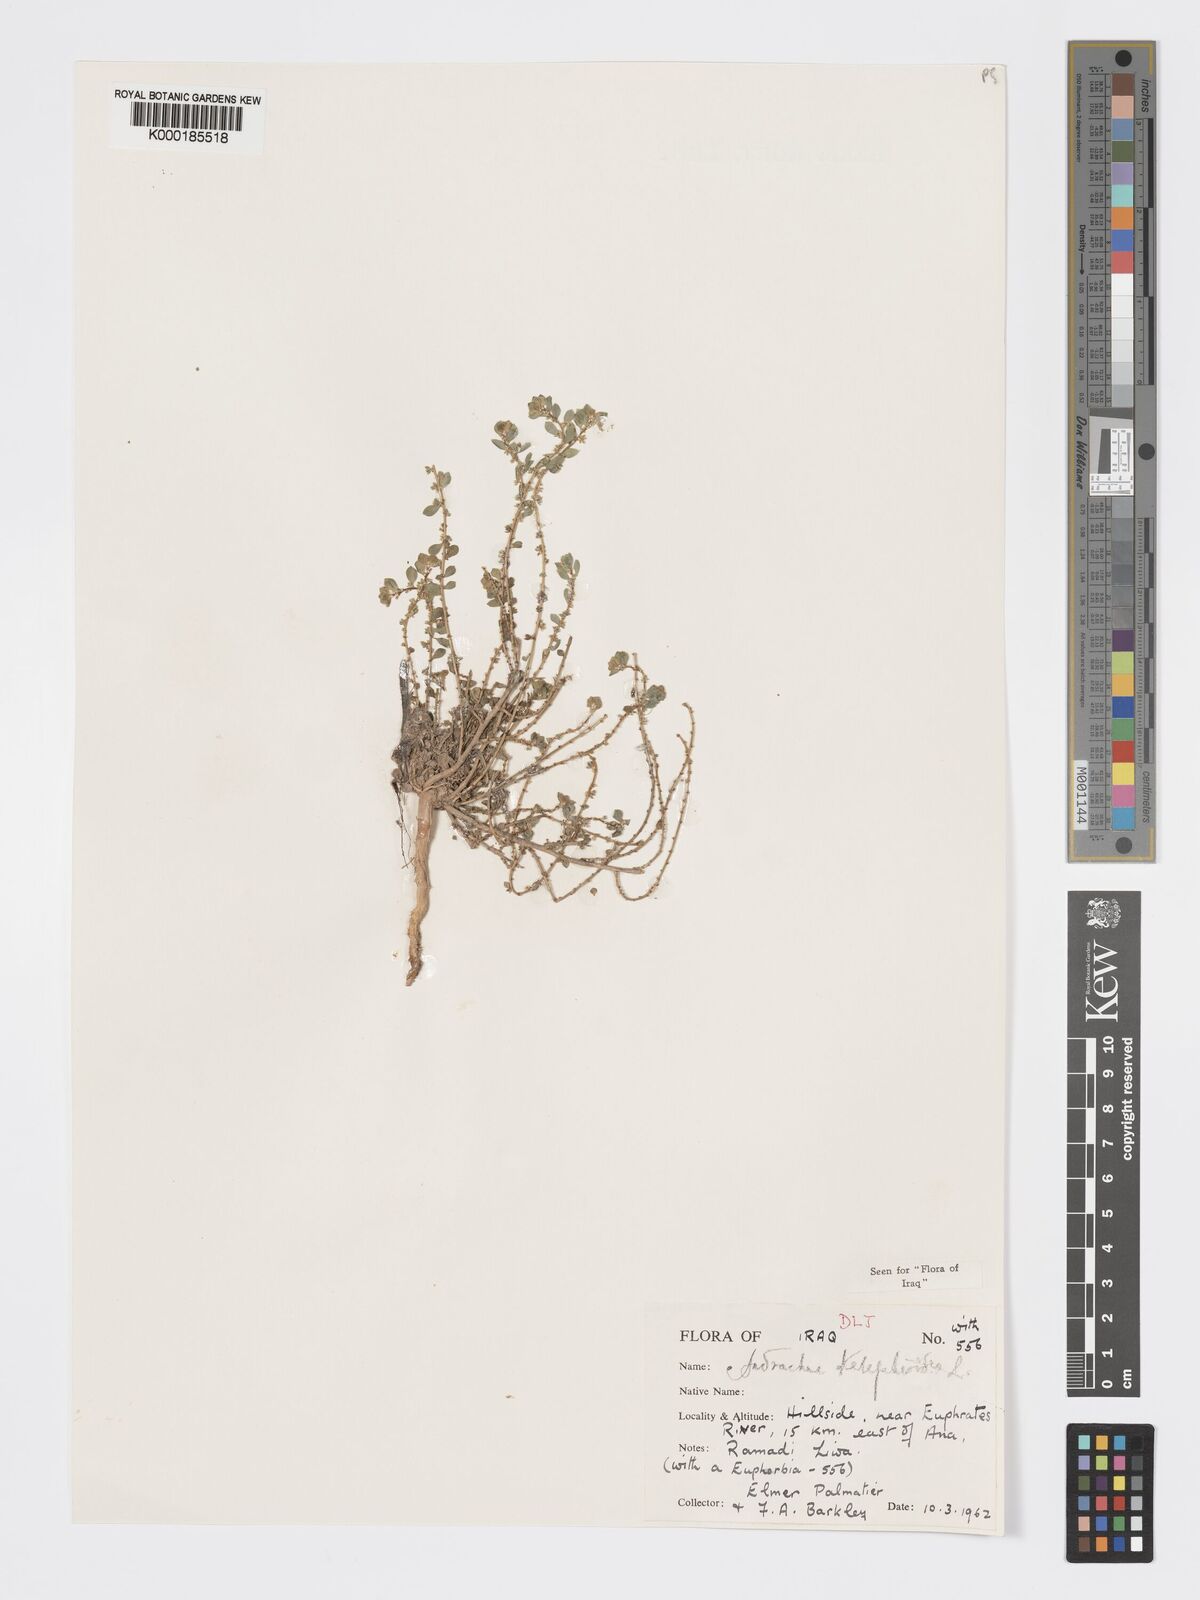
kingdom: Plantae
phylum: Tracheophyta
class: Magnoliopsida
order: Malpighiales
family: Phyllanthaceae
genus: Andrachne
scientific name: Andrachne telephioides
